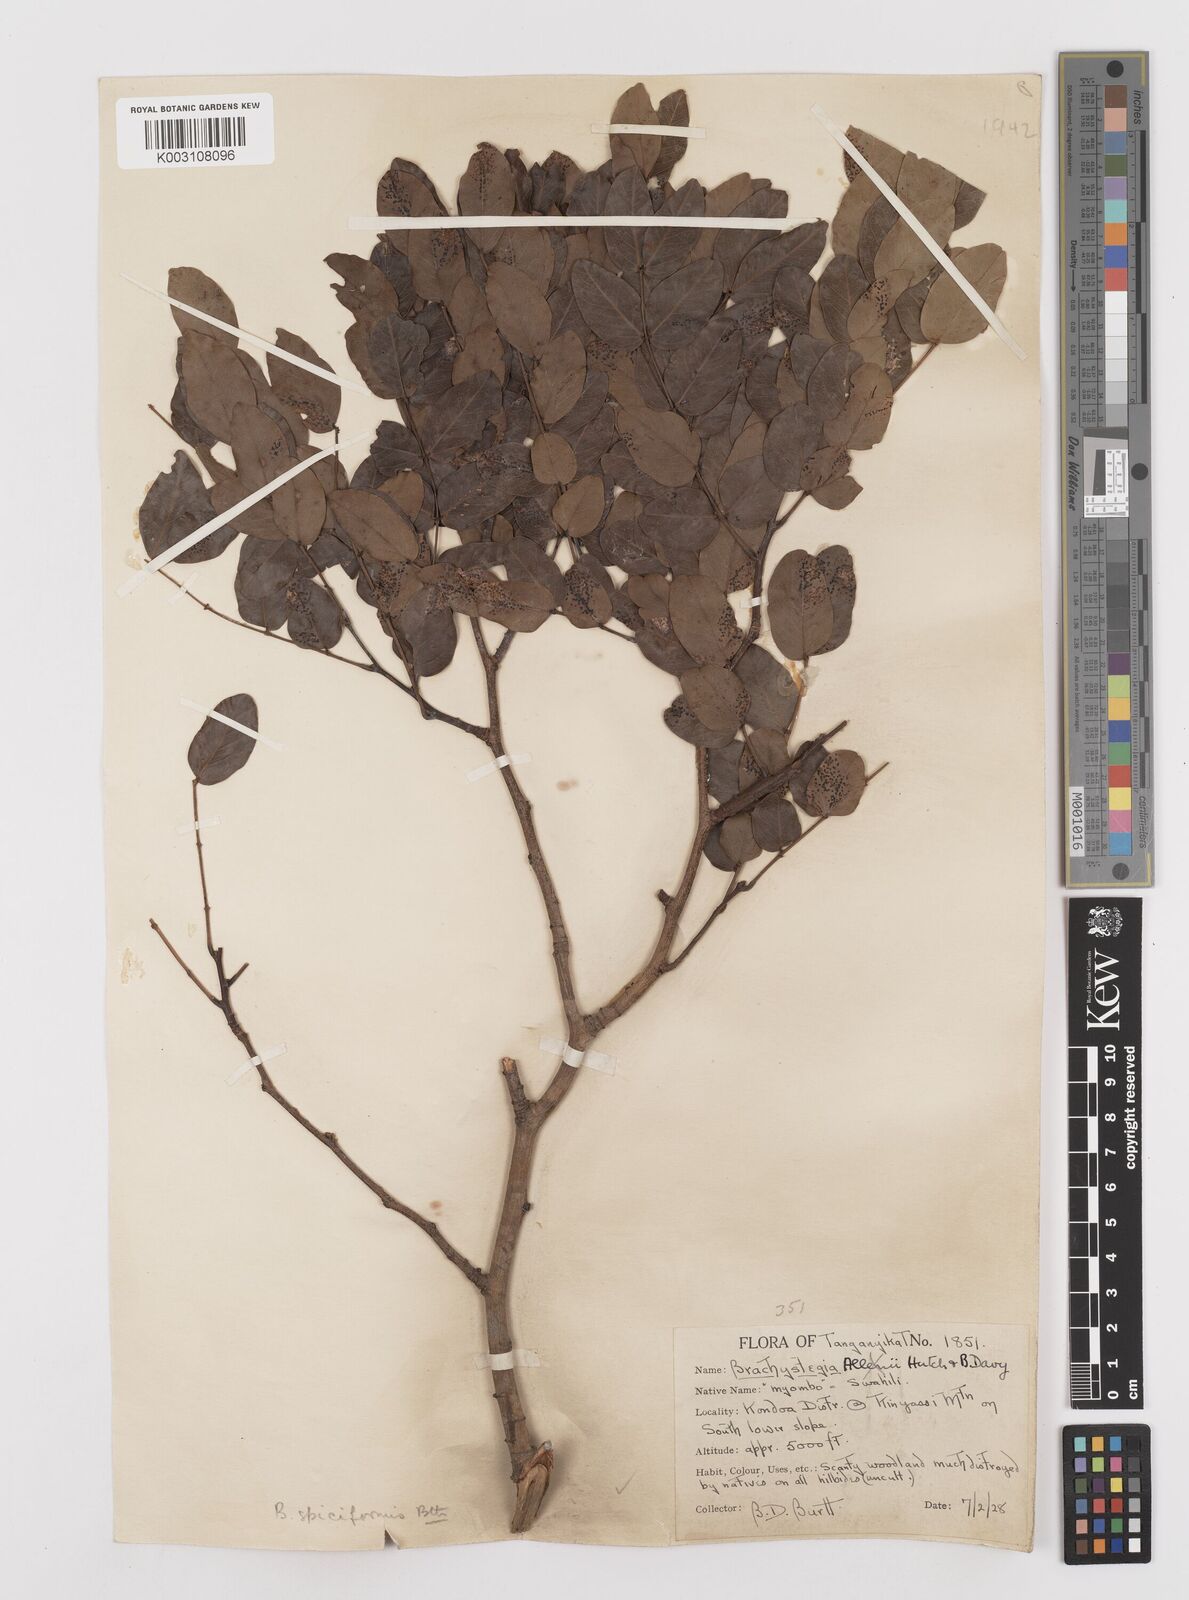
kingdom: Plantae
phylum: Tracheophyta
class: Magnoliopsida
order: Fabales
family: Fabaceae
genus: Brachystegia
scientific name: Brachystegia spiciformis
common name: Zebrawood
